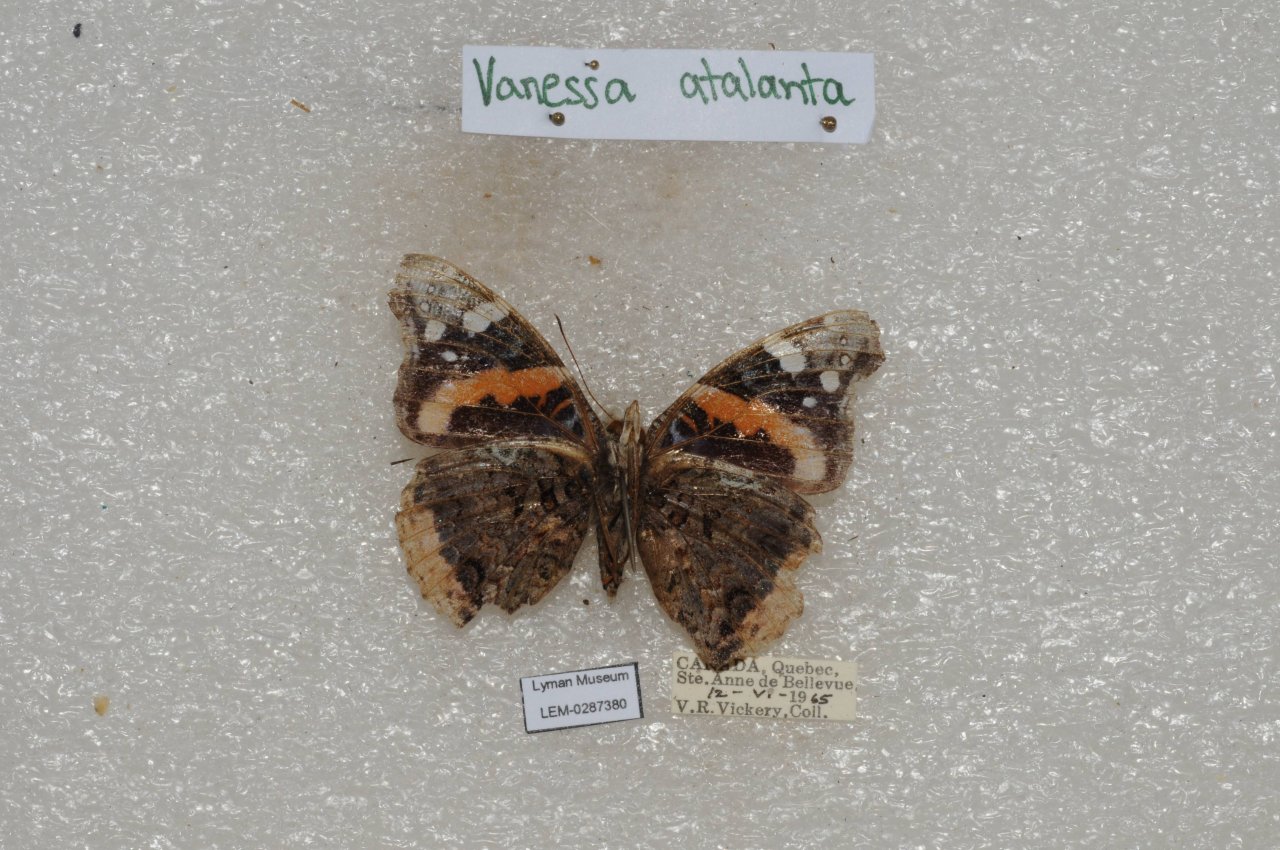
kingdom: Animalia
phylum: Arthropoda
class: Insecta
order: Lepidoptera
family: Nymphalidae
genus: Vanessa
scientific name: Vanessa atalanta
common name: Red Admiral
